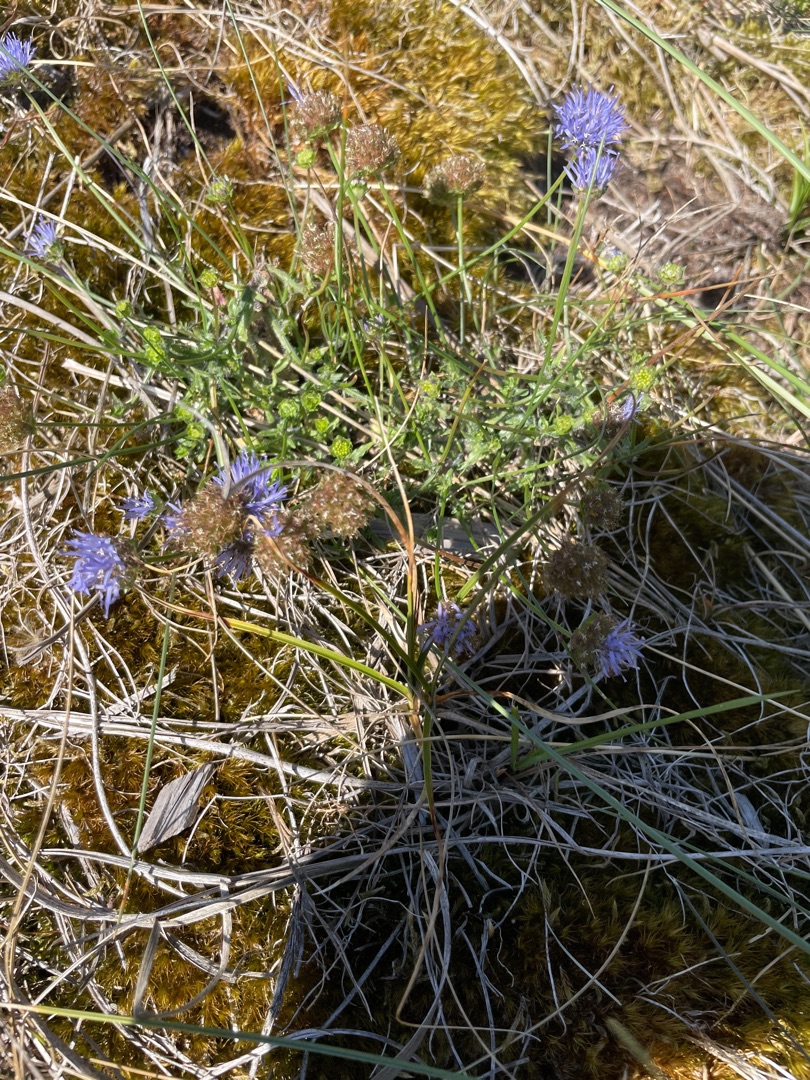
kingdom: Plantae
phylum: Tracheophyta
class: Magnoliopsida
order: Asterales
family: Campanulaceae
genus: Jasione
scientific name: Jasione montana
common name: Blåmunke
